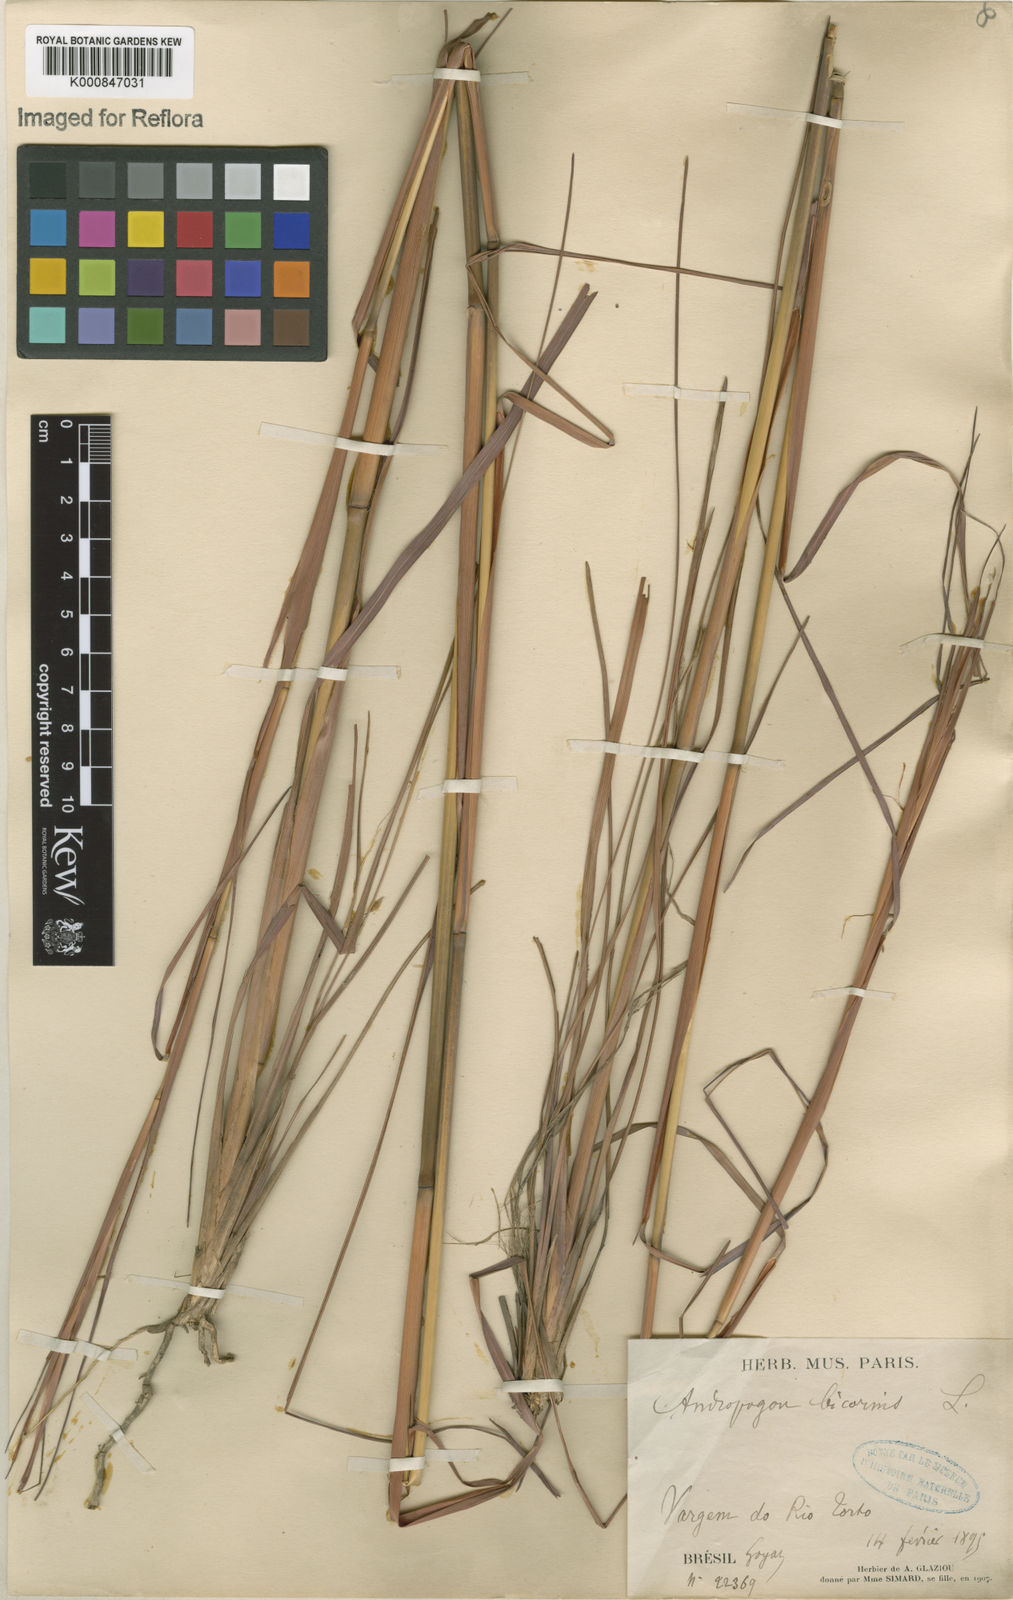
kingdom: Plantae
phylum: Tracheophyta
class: Liliopsida
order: Poales
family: Poaceae
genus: Andropogon
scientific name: Andropogon
